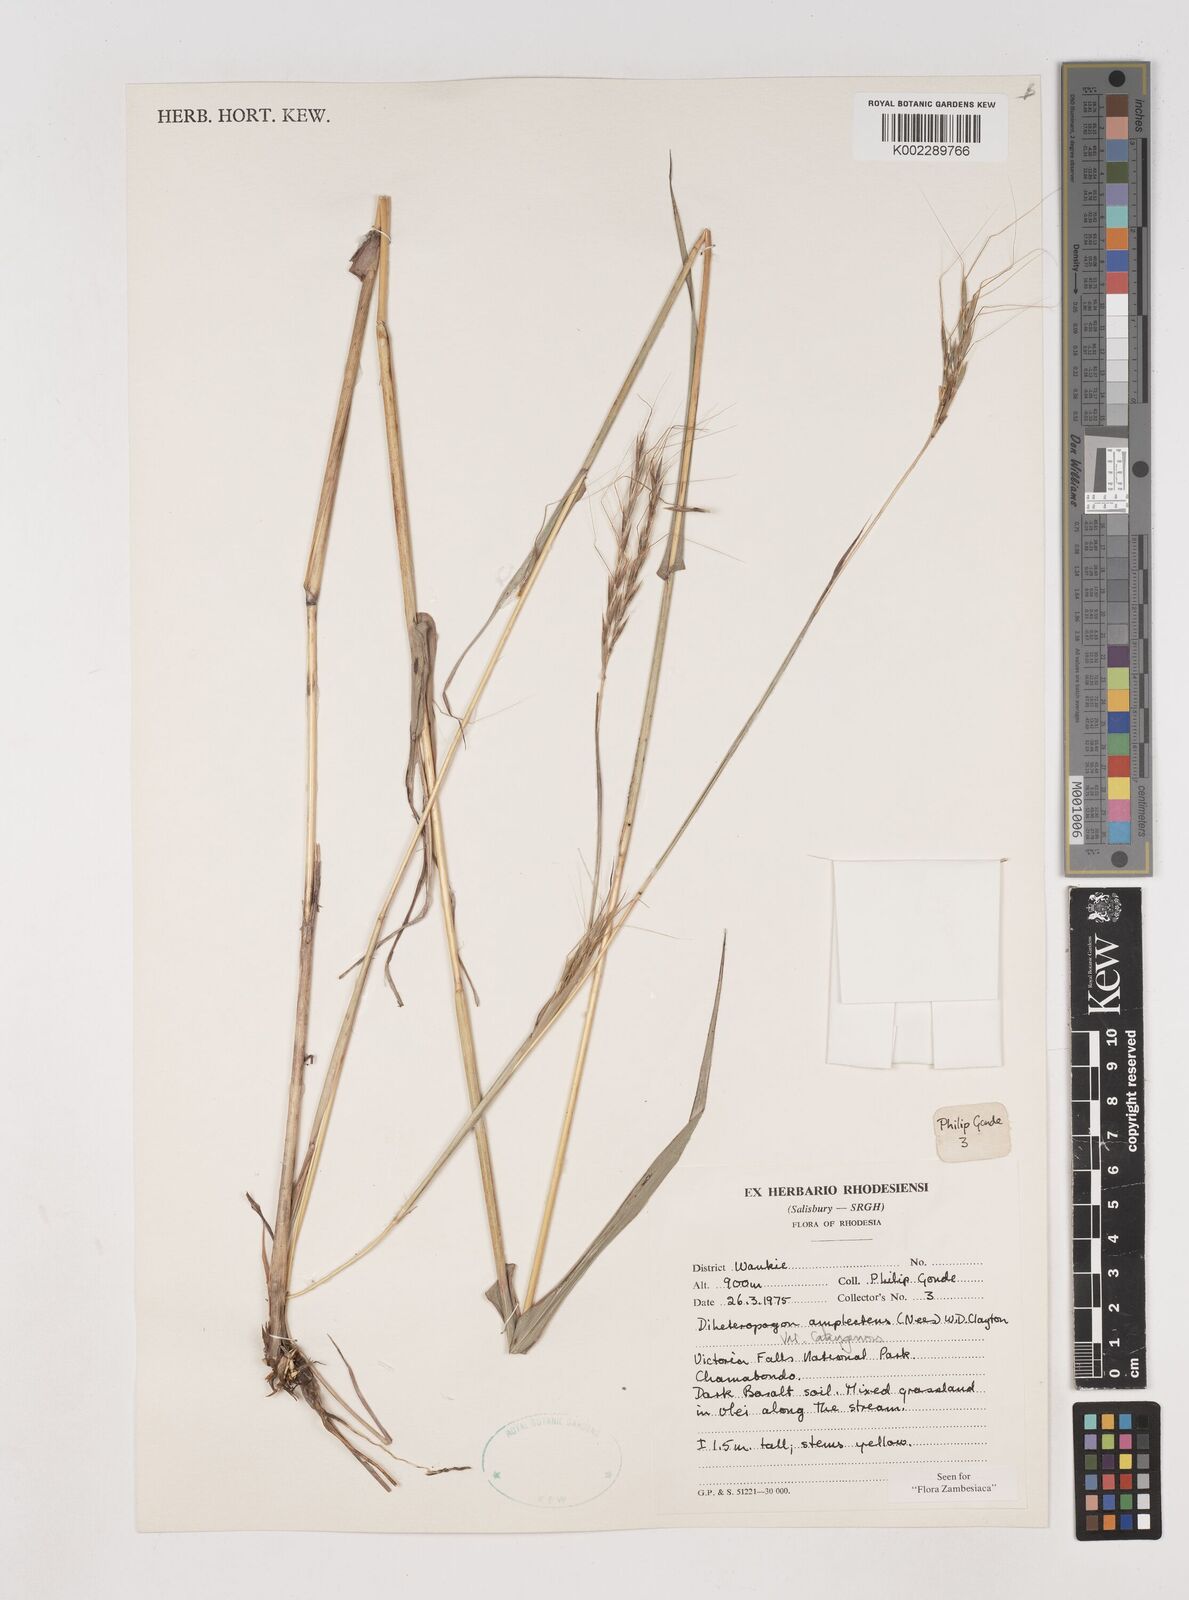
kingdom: Plantae
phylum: Tracheophyta
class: Liliopsida
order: Poales
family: Poaceae
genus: Diheteropogon
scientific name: Diheteropogon amplectens
